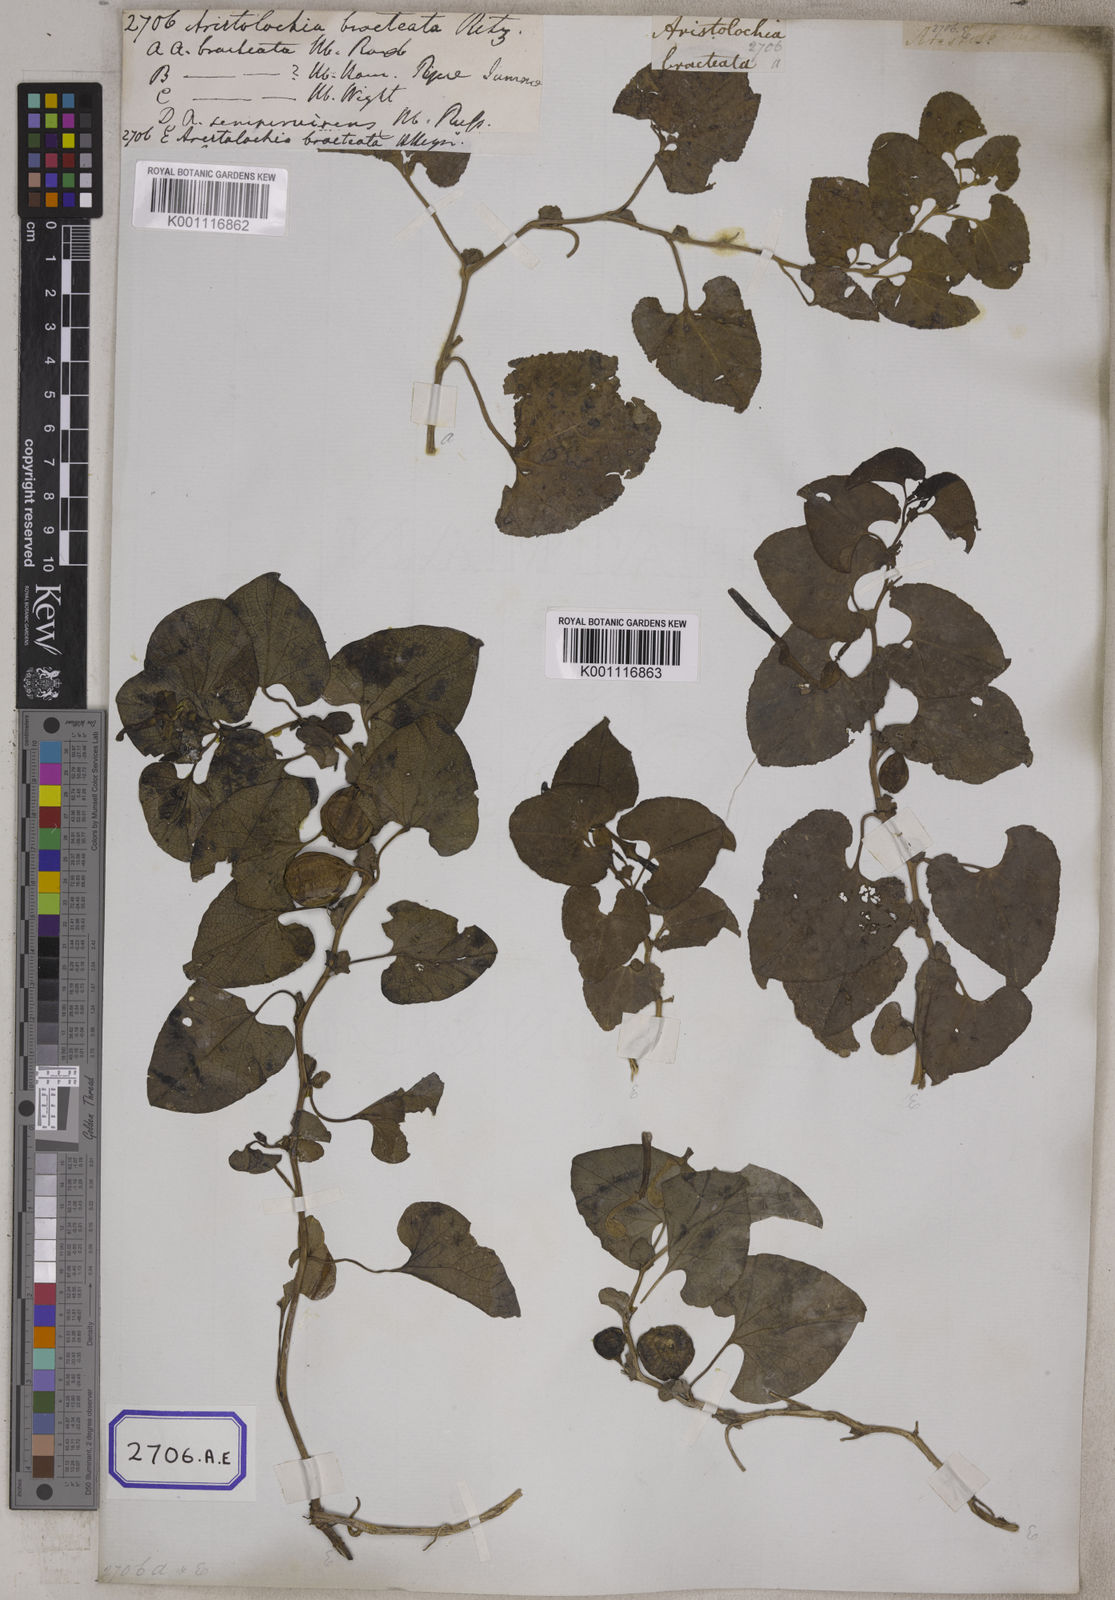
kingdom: Plantae
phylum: Tracheophyta
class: Magnoliopsida
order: Piperales
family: Aristolochiaceae
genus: Aristolochia
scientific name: Aristolochia bracteolata
